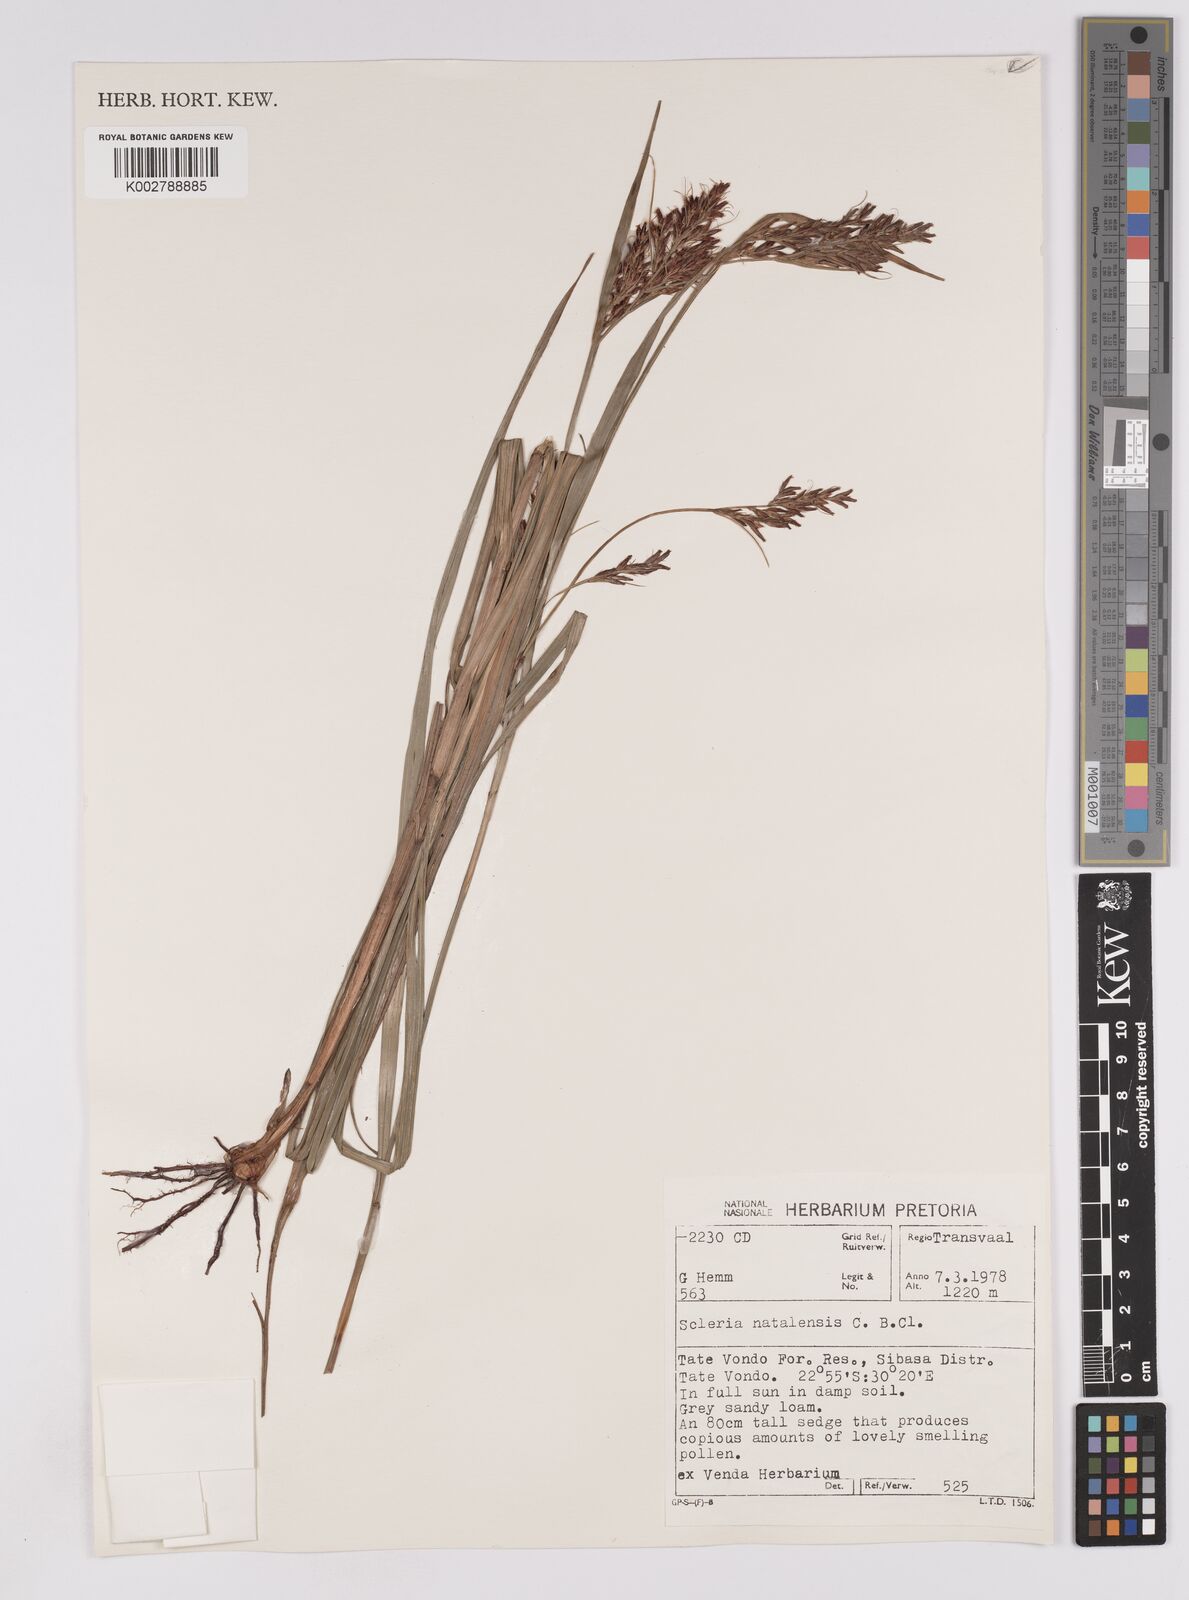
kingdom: Plantae
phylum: Tracheophyta
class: Liliopsida
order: Poales
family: Cyperaceae
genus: Scleria
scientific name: Scleria transvaalensis
